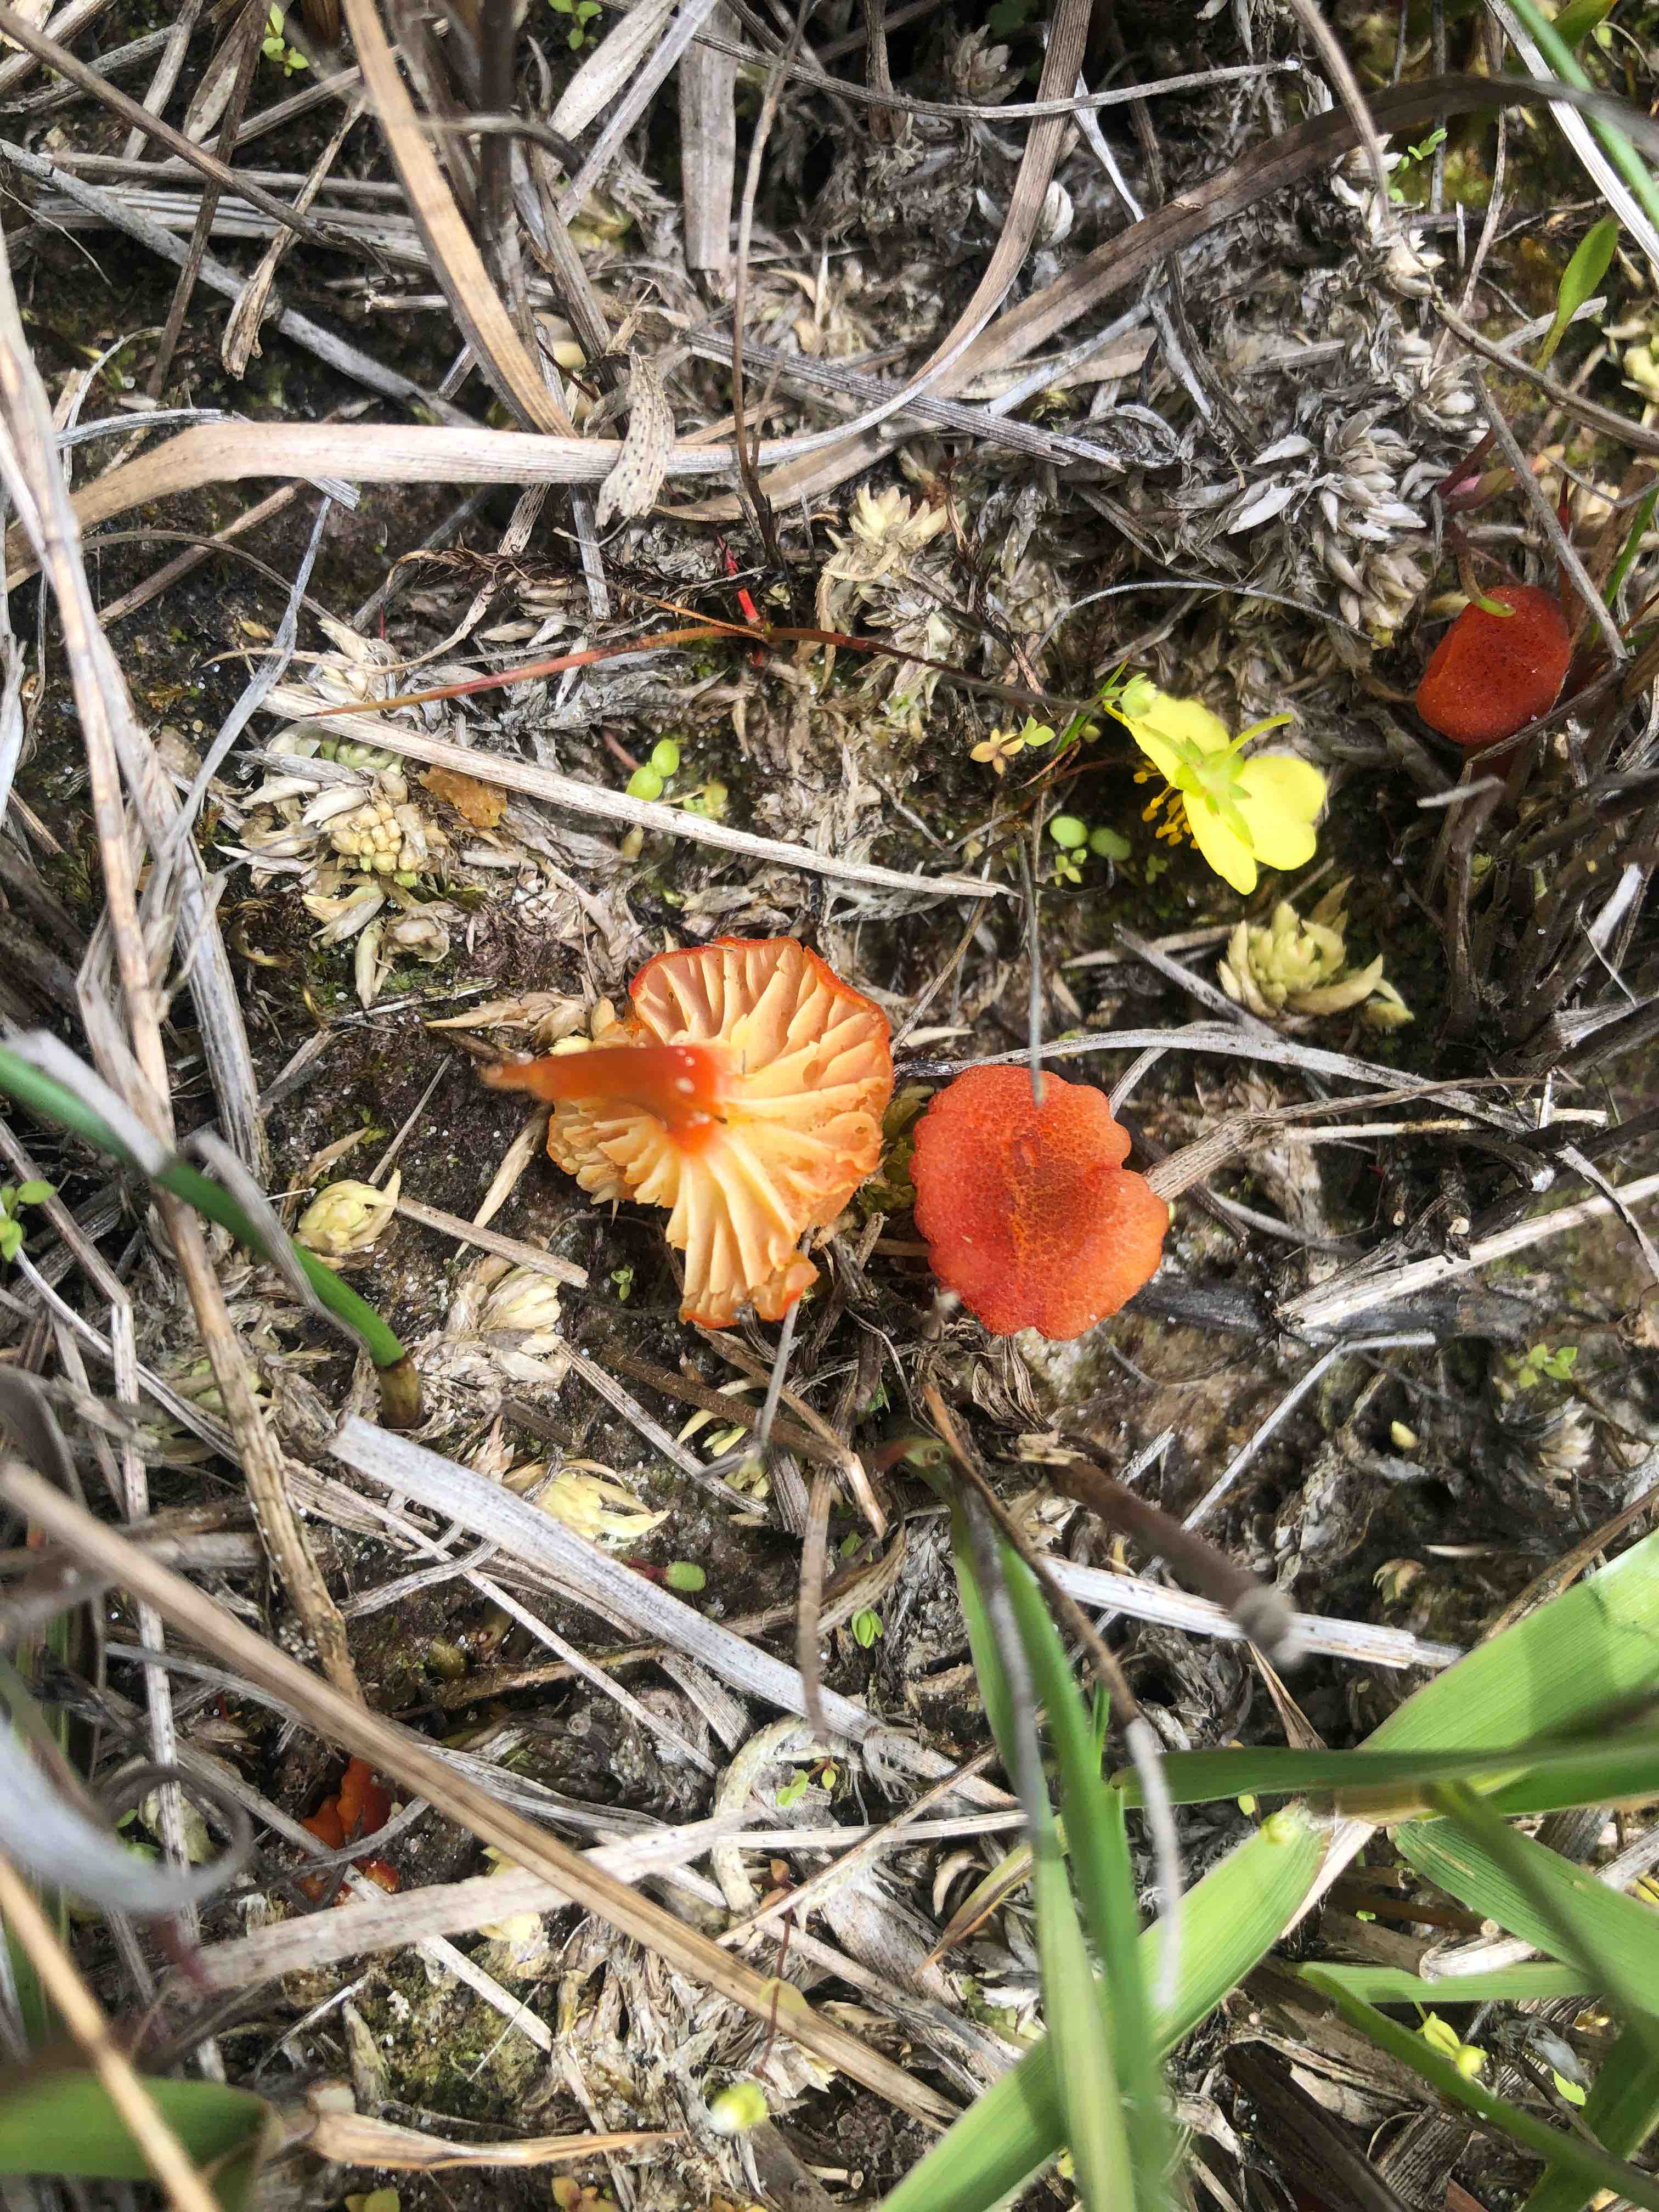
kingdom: Fungi
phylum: Basidiomycota
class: Agaricomycetes
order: Agaricales
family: Hygrophoraceae
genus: Hygrocybe
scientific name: Hygrocybe
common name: vokshat
